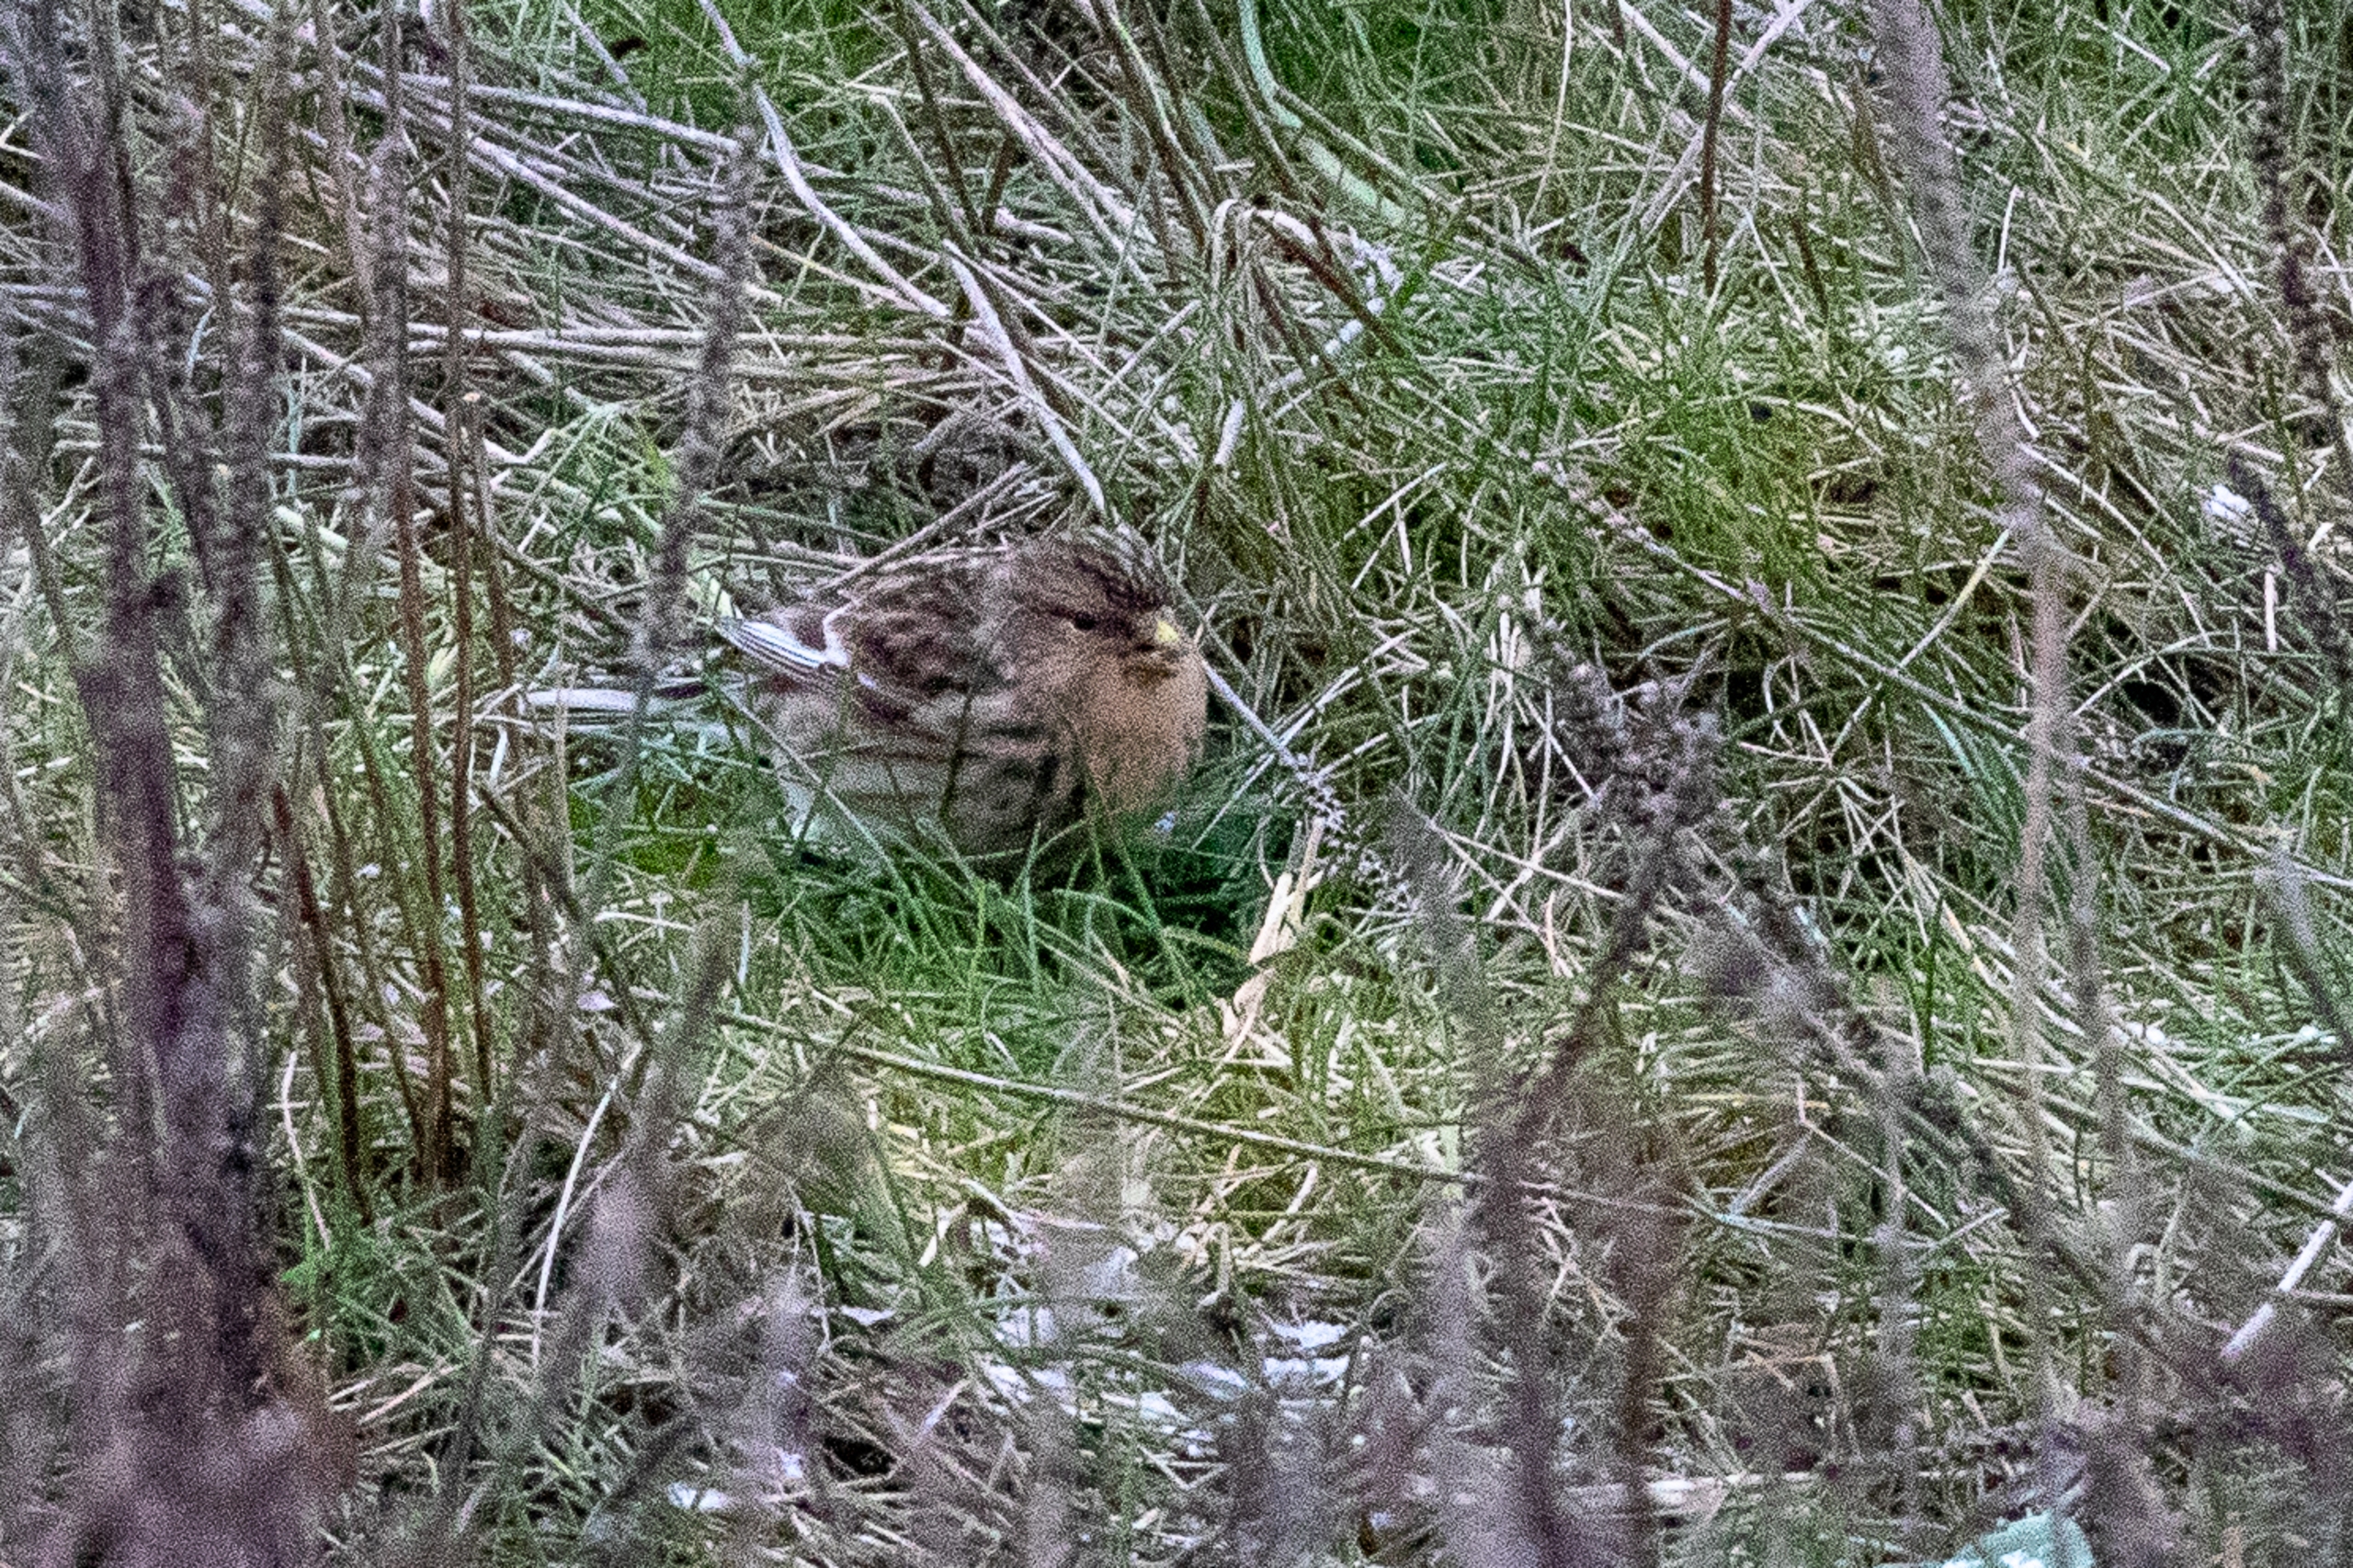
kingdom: Animalia
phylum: Chordata
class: Aves
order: Passeriformes
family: Fringillidae
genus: Linaria
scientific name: Linaria flavirostris
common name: Bjergirisk
